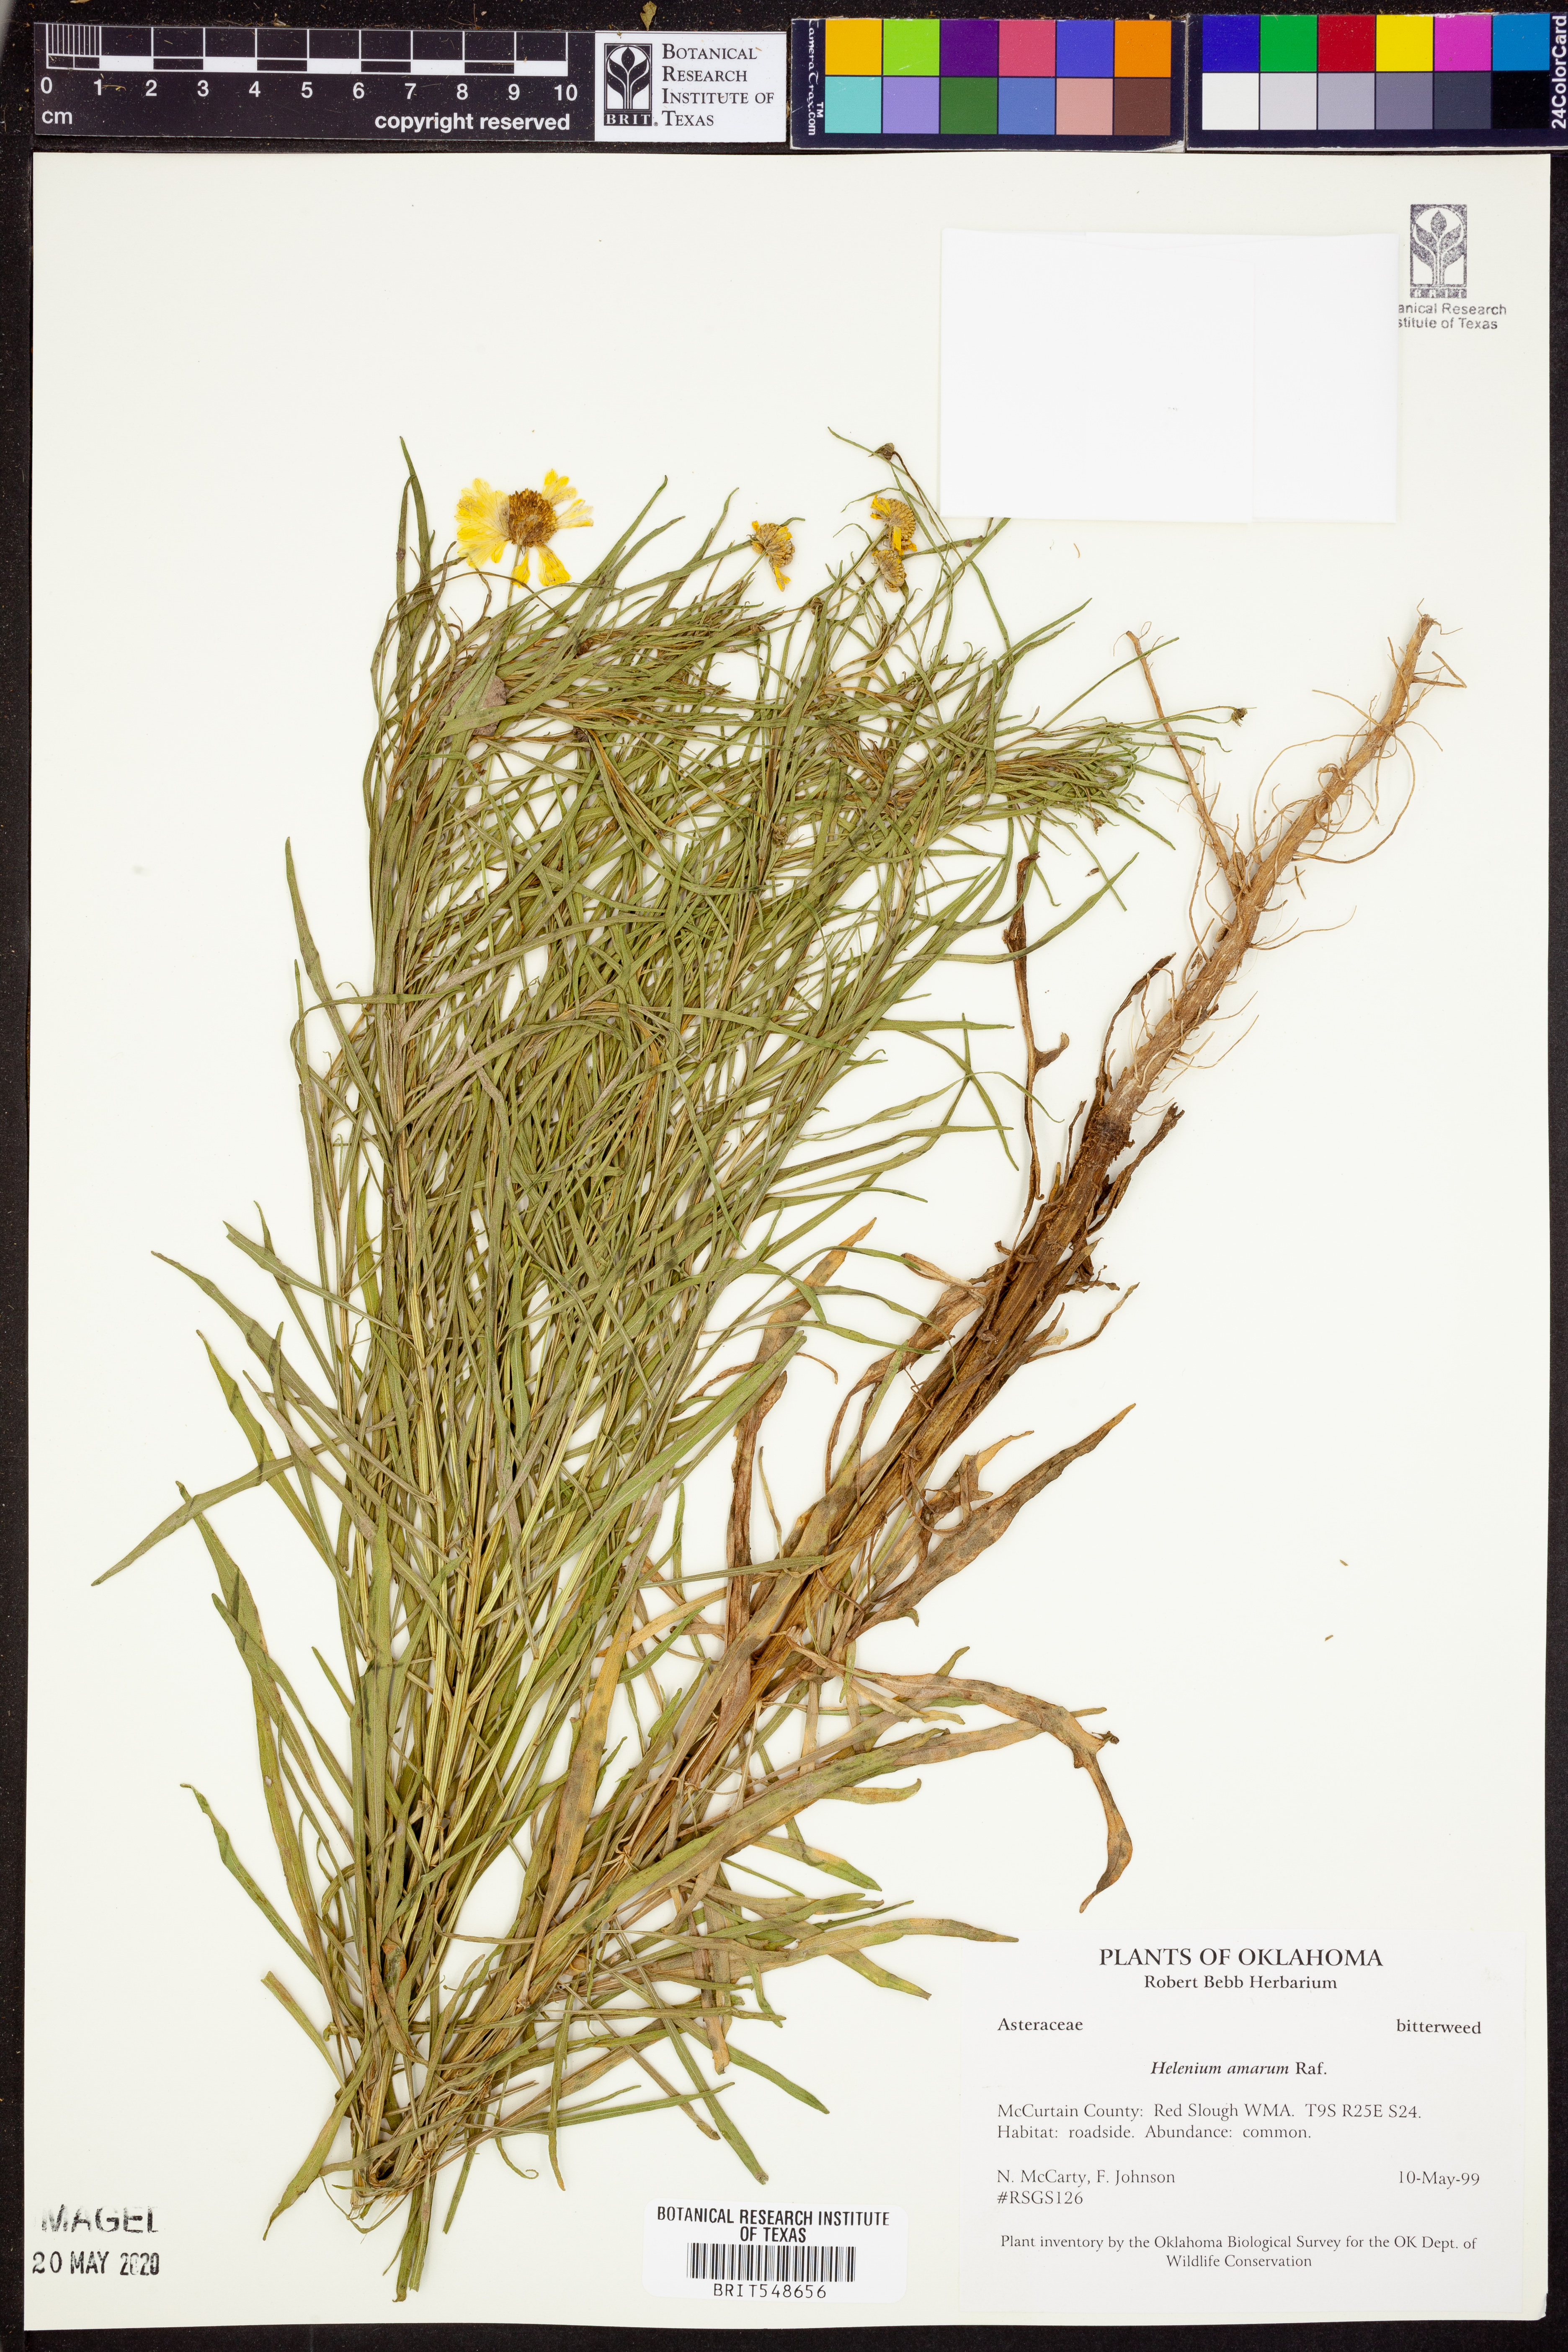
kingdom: Plantae
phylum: Tracheophyta
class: Magnoliopsida
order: Asterales
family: Asteraceae
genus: Helenium
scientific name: Helenium amarum
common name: Bitter sneezeweed
